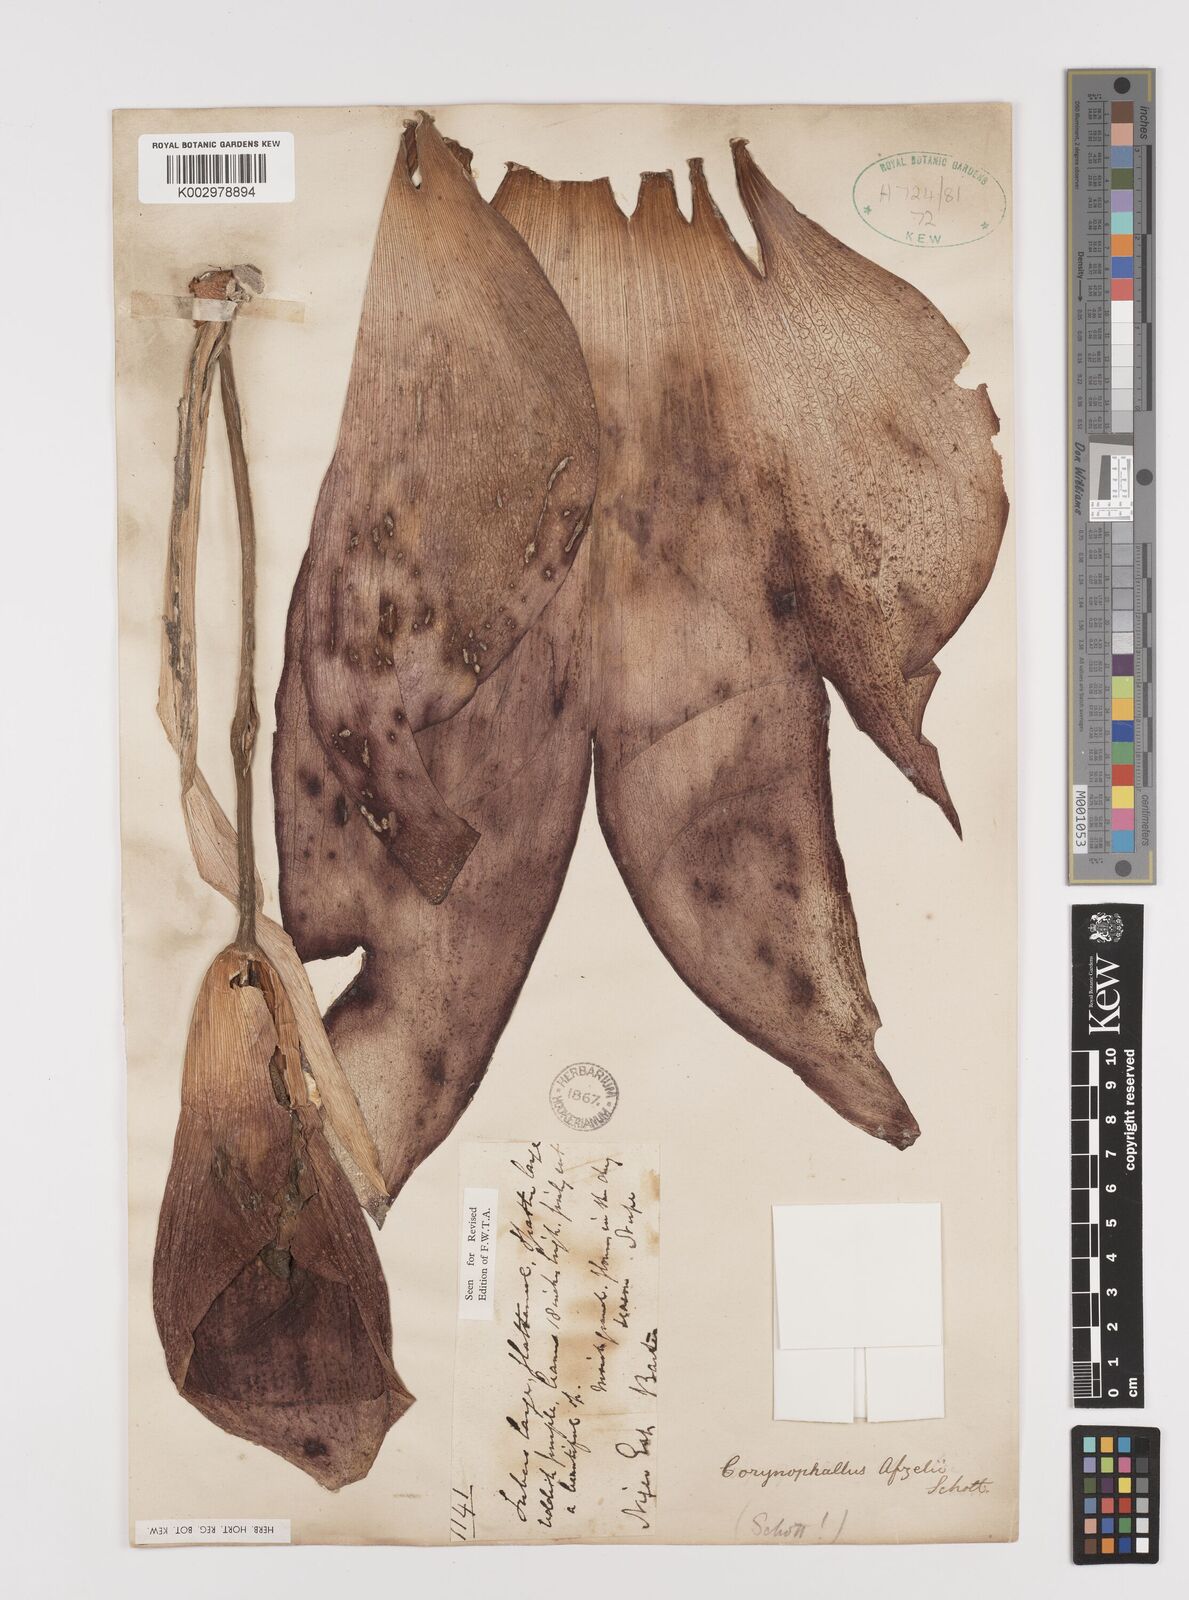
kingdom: Plantae
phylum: Tracheophyta
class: Liliopsida
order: Alismatales
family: Araceae
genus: Amorphophallus
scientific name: Amorphophallus abyssinicus
